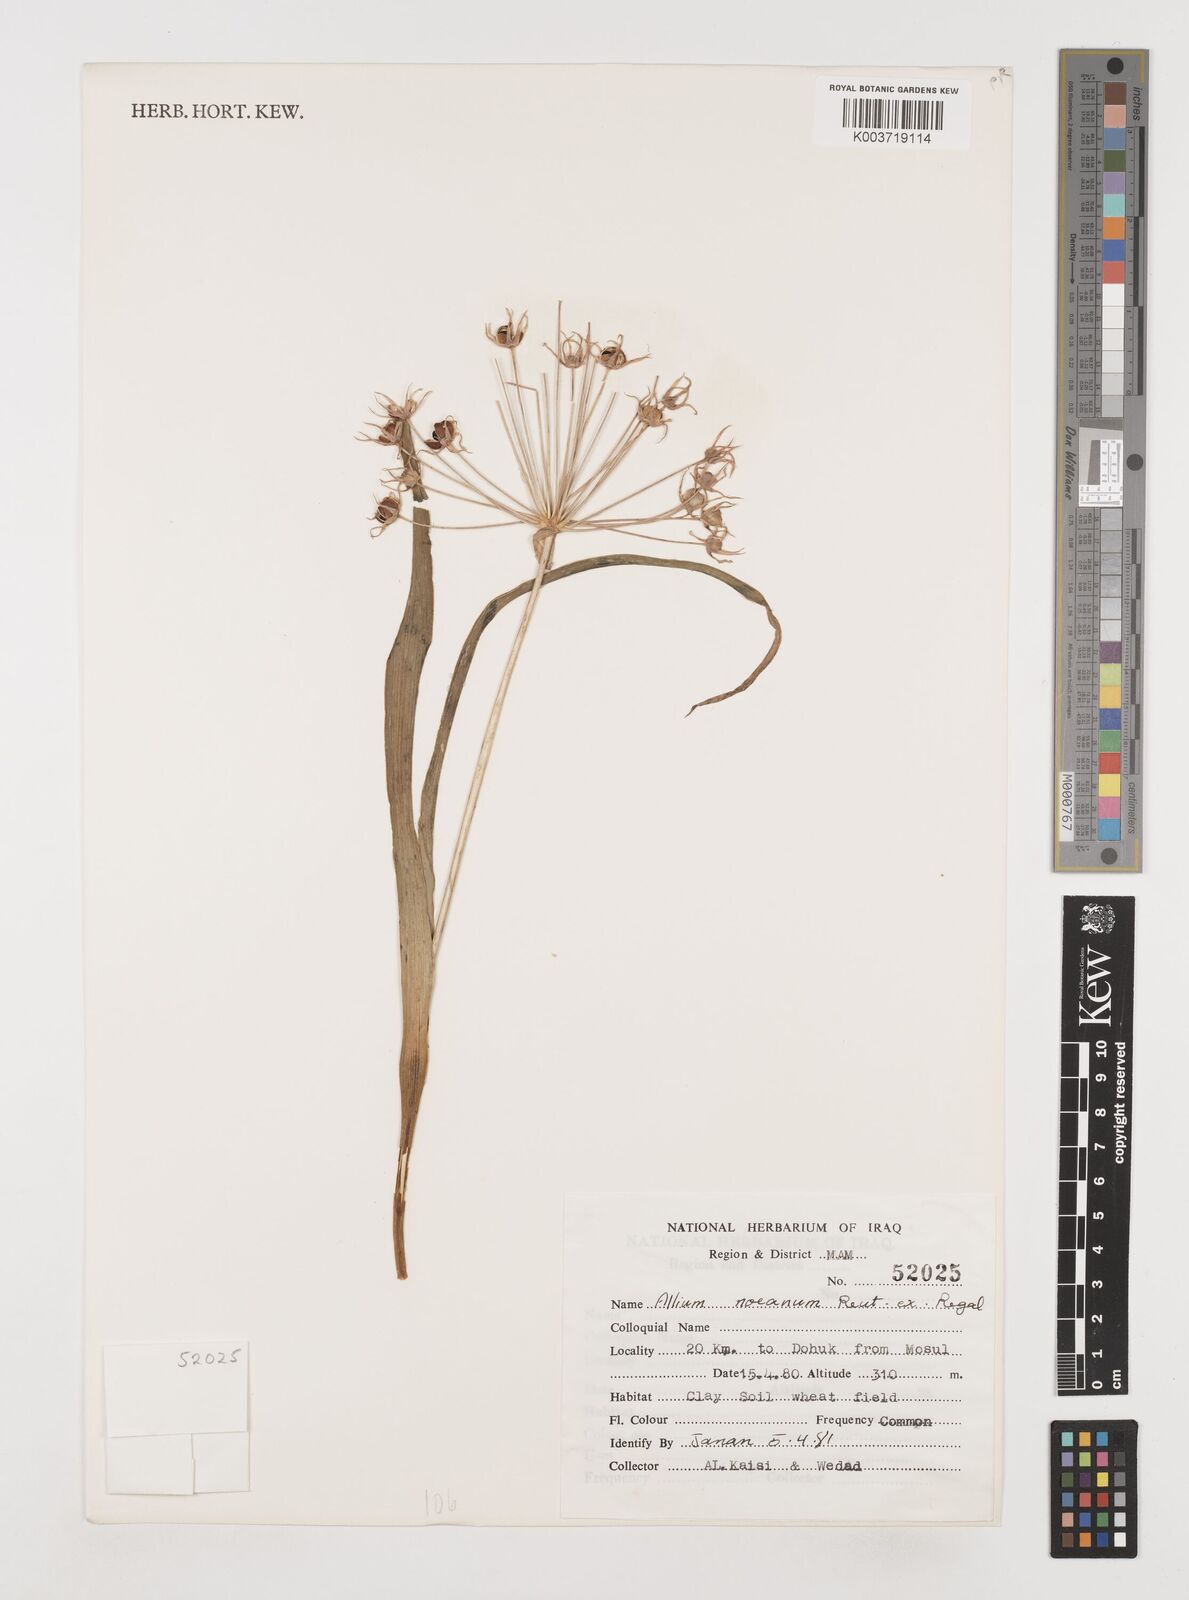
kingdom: Plantae
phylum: Tracheophyta
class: Liliopsida
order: Asparagales
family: Amaryllidaceae
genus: Allium
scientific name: Allium noeanum
